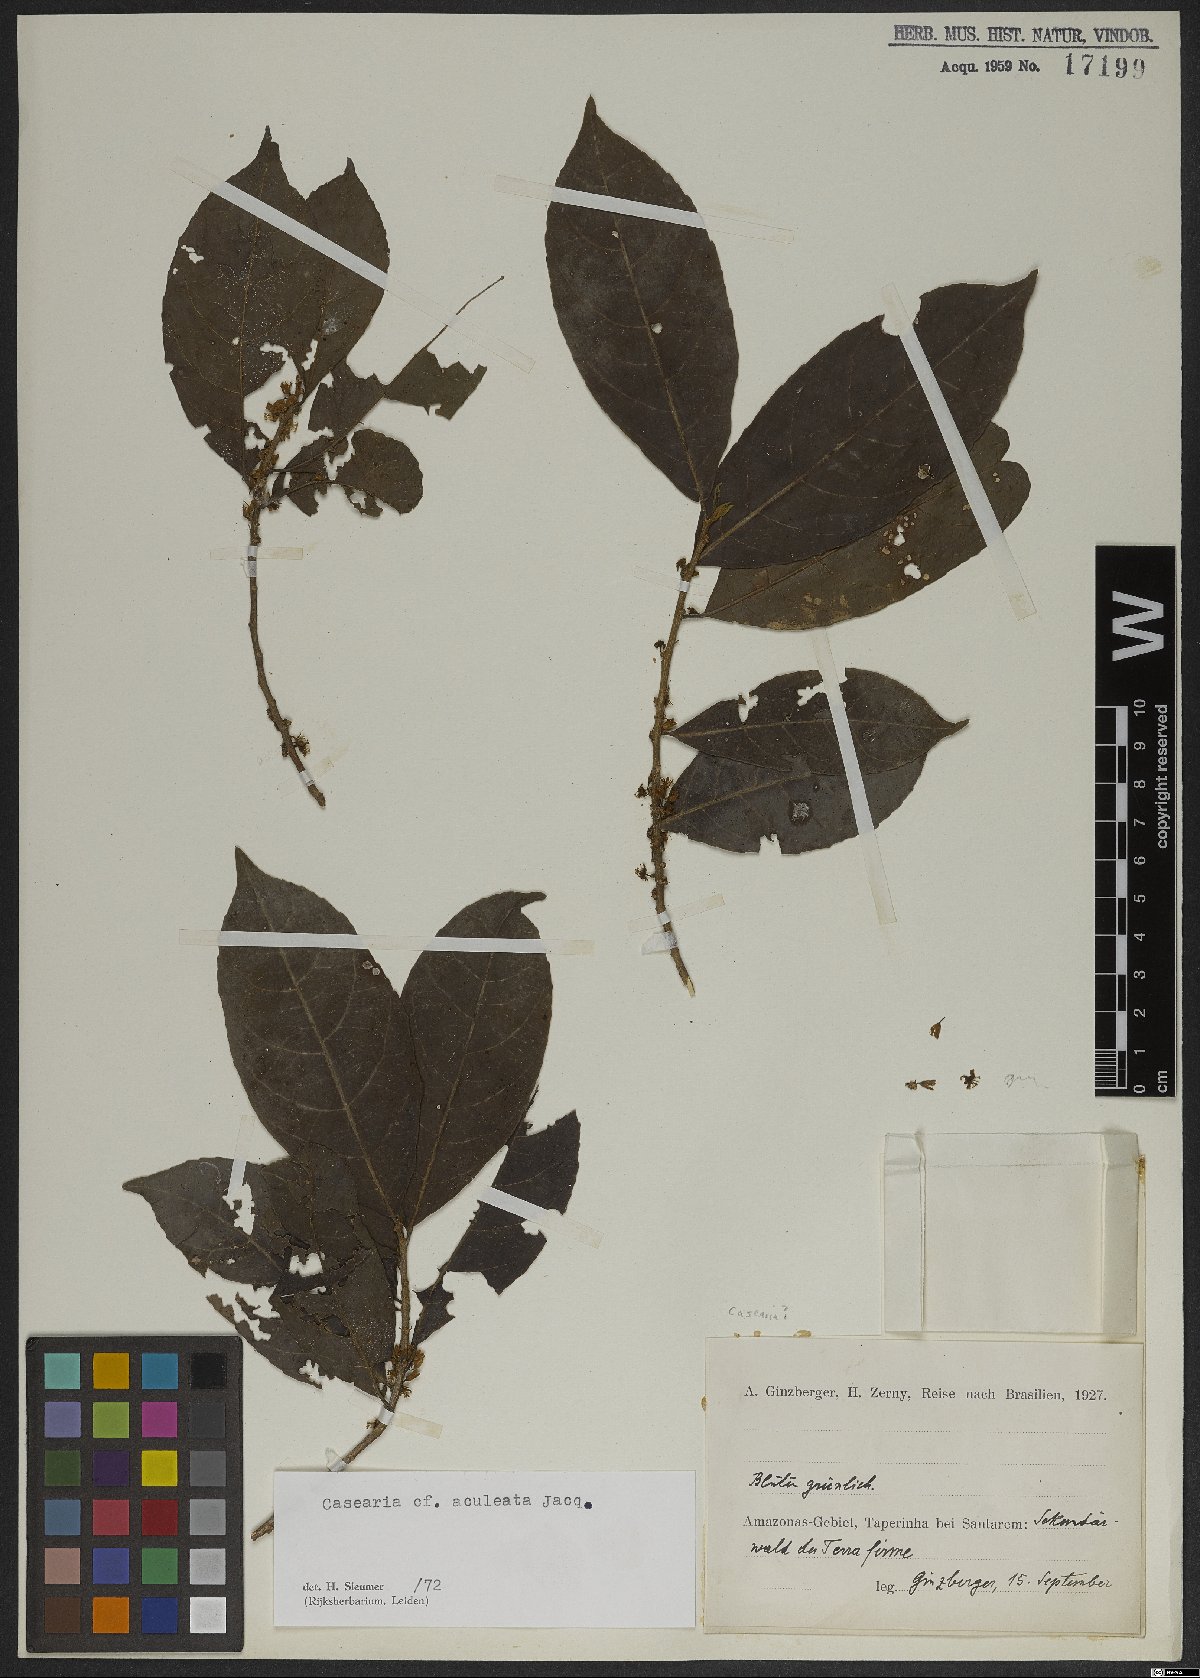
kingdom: Plantae
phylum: Tracheophyta
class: Magnoliopsida
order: Malpighiales
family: Salicaceae
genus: Casearia
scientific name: Casearia aculeata
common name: Cockspur
